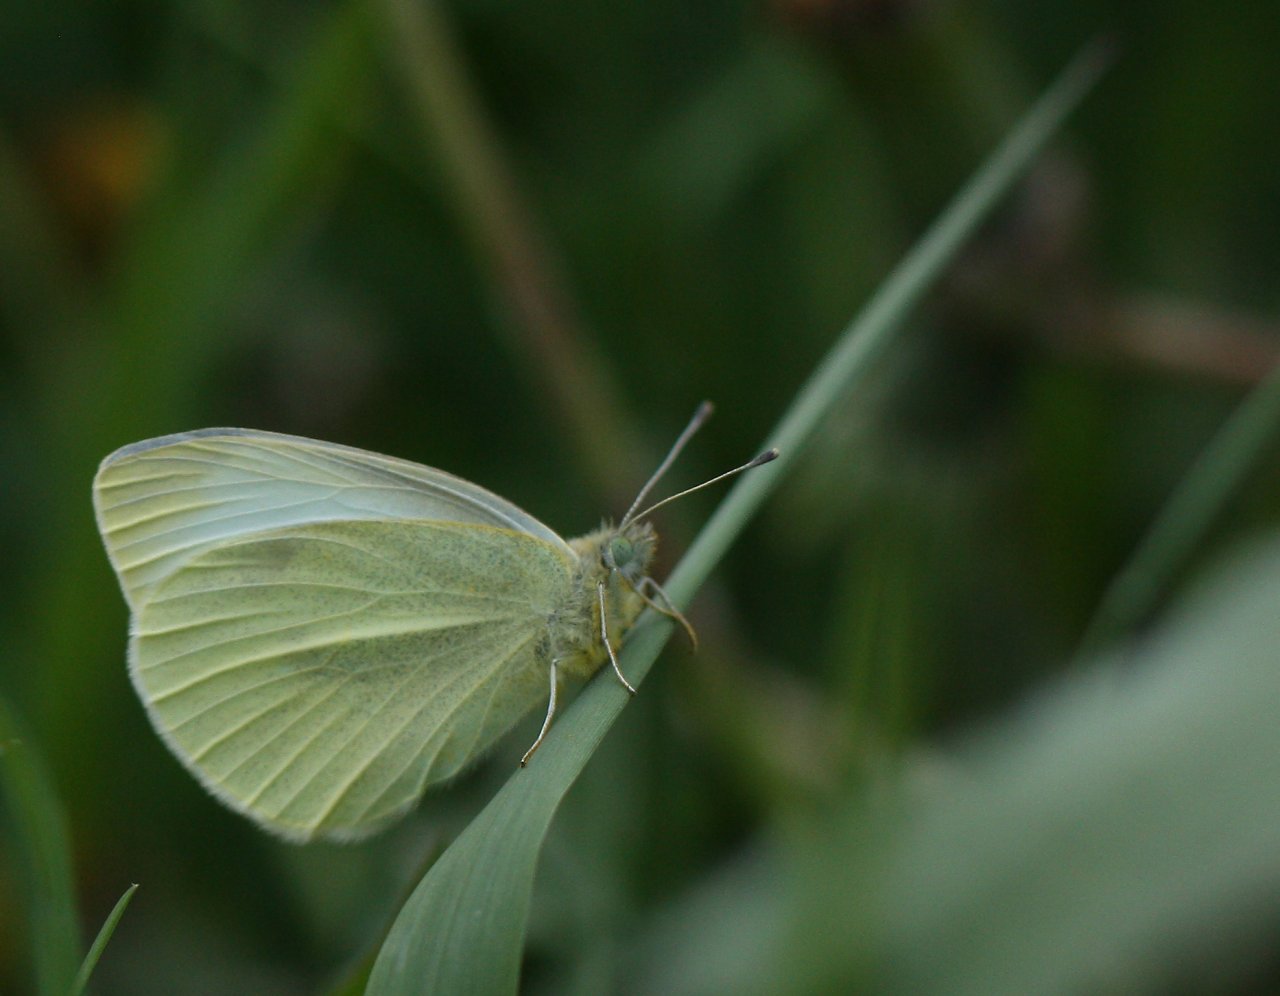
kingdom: Animalia
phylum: Arthropoda
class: Insecta
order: Lepidoptera
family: Pieridae
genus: Pieris
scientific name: Pieris rapae
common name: Cabbage White
